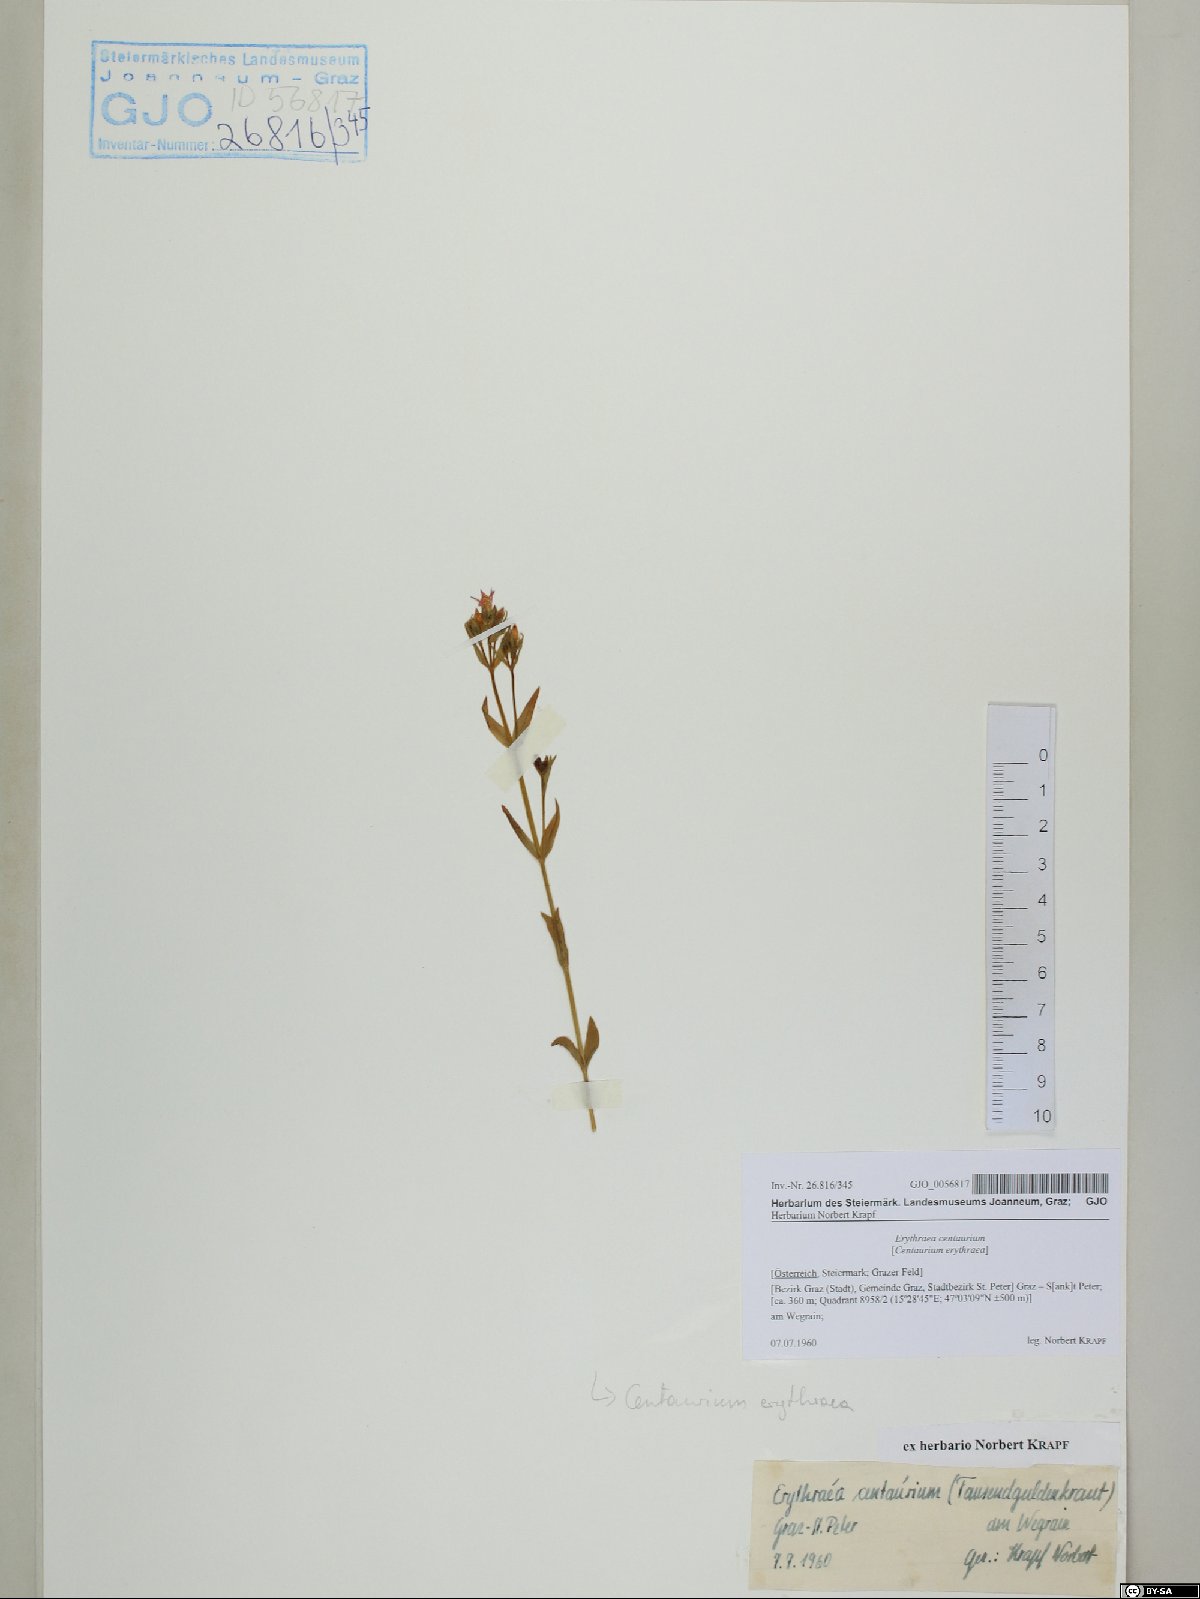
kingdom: Plantae
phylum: Tracheophyta
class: Magnoliopsida
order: Gentianales
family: Gentianaceae
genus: Centaurium
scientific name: Centaurium erythraea
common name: Common centaury
